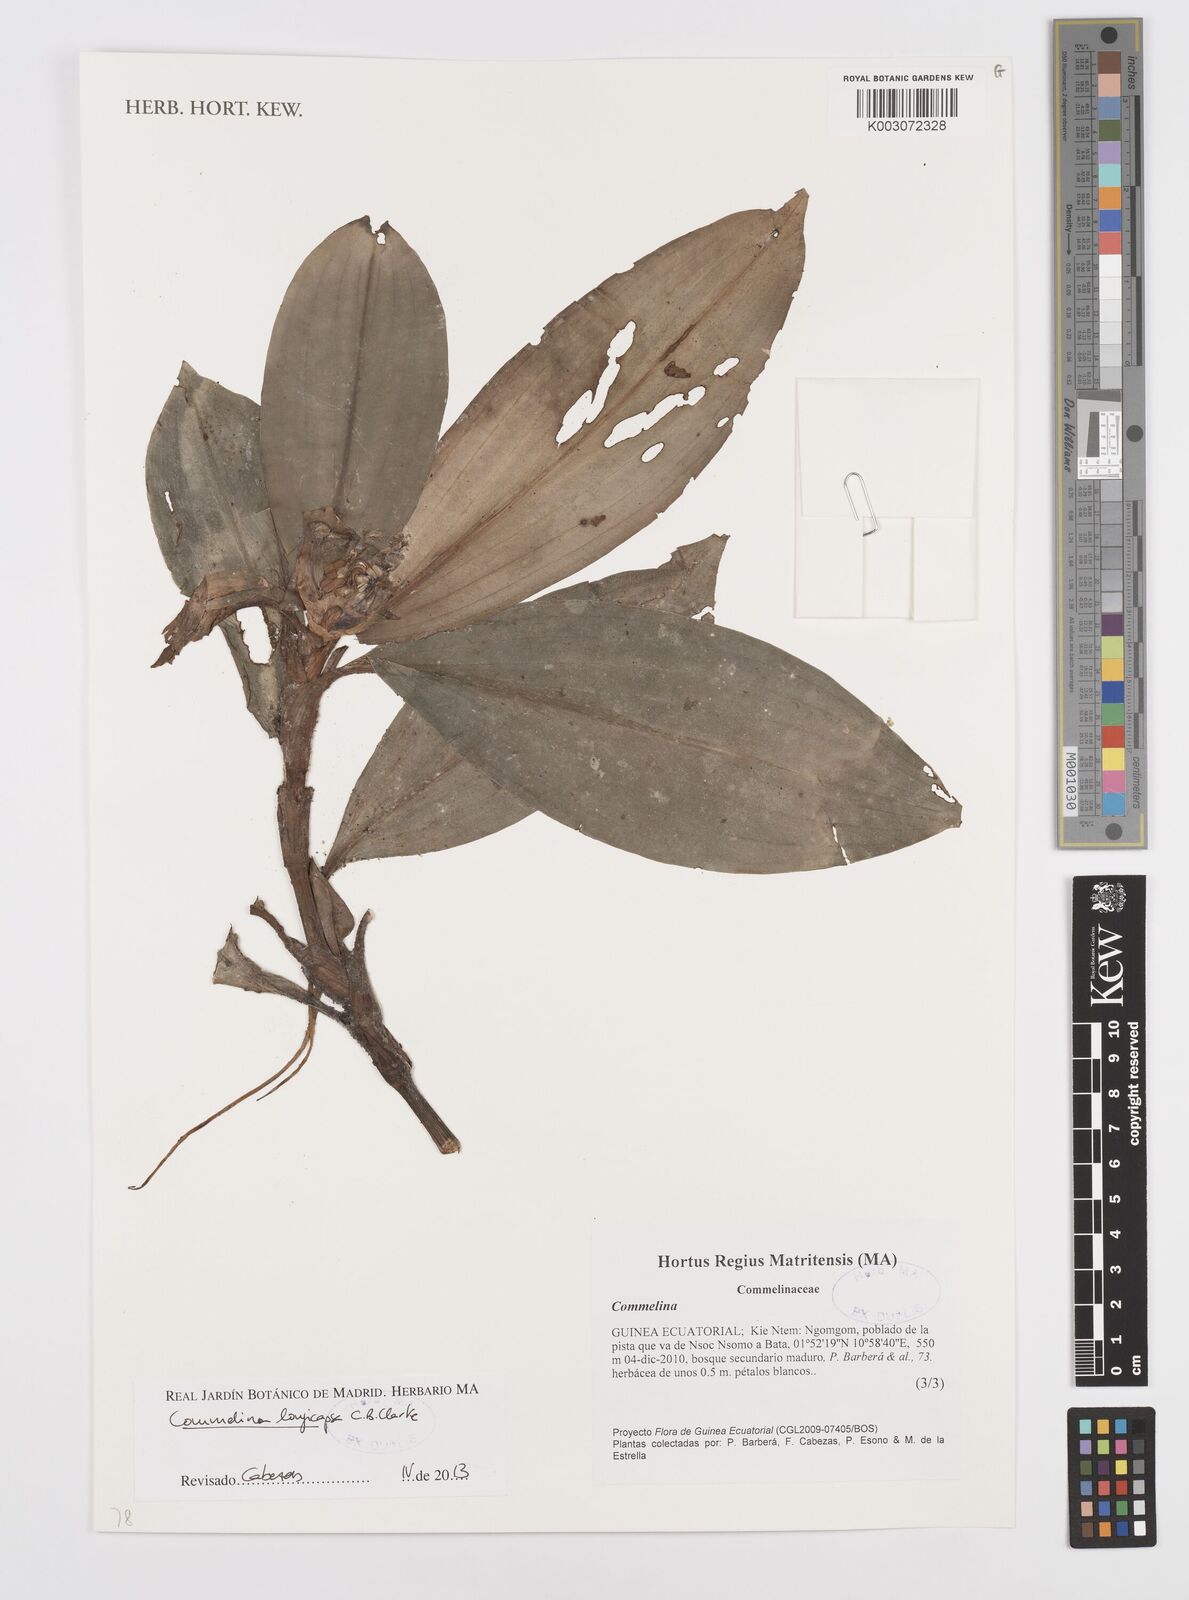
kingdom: Plantae
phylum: Tracheophyta
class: Liliopsida
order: Commelinales
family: Commelinaceae
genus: Commelina
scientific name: Commelina longicapsa
